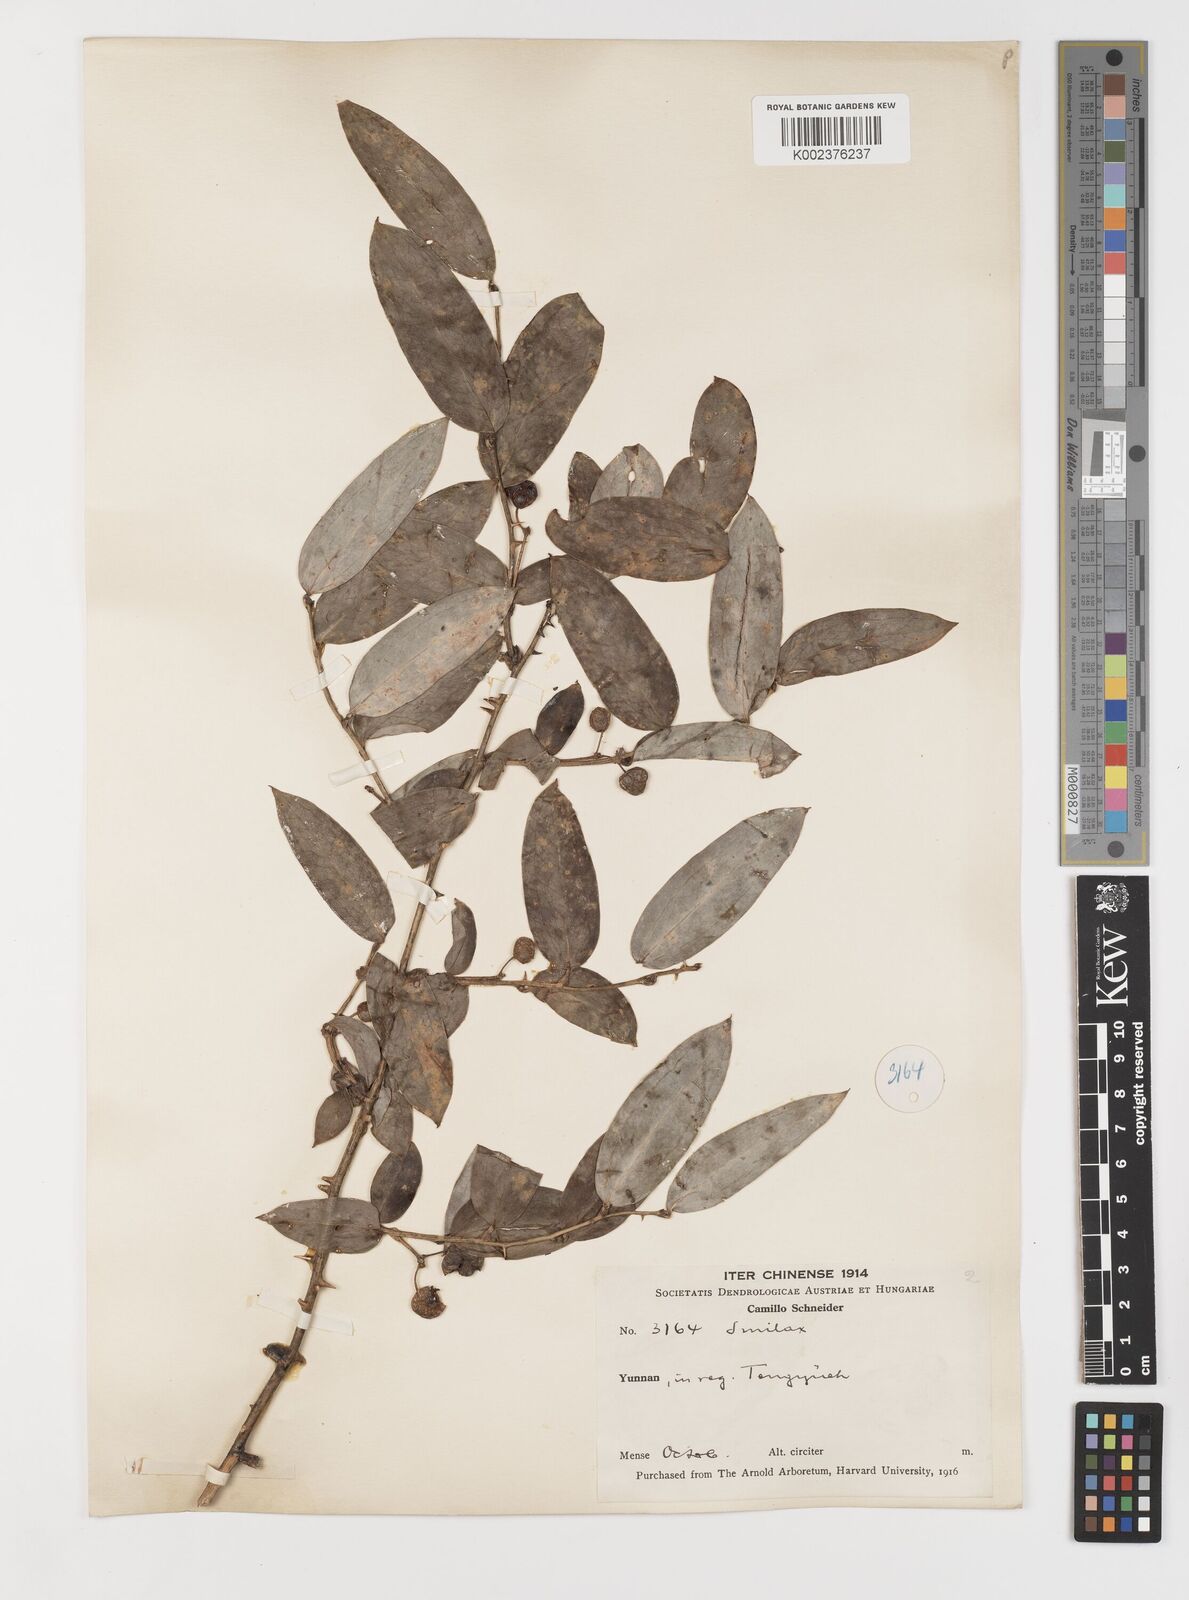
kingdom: Plantae
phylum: Tracheophyta
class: Liliopsida
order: Liliales
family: Smilacaceae
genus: Smilax
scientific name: Smilax ferox
